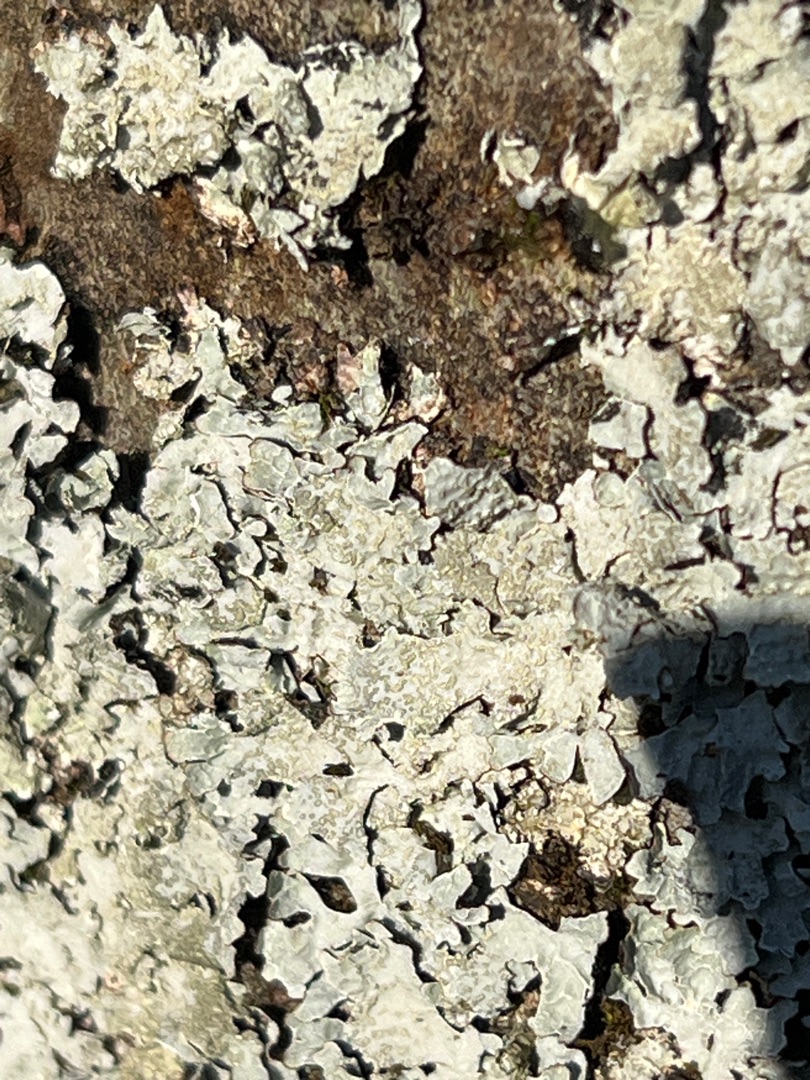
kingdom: Fungi
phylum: Ascomycota
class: Lecanoromycetes
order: Lecanorales
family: Parmeliaceae
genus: Parmelia
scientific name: Parmelia sulcata
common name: Rynket skållav
